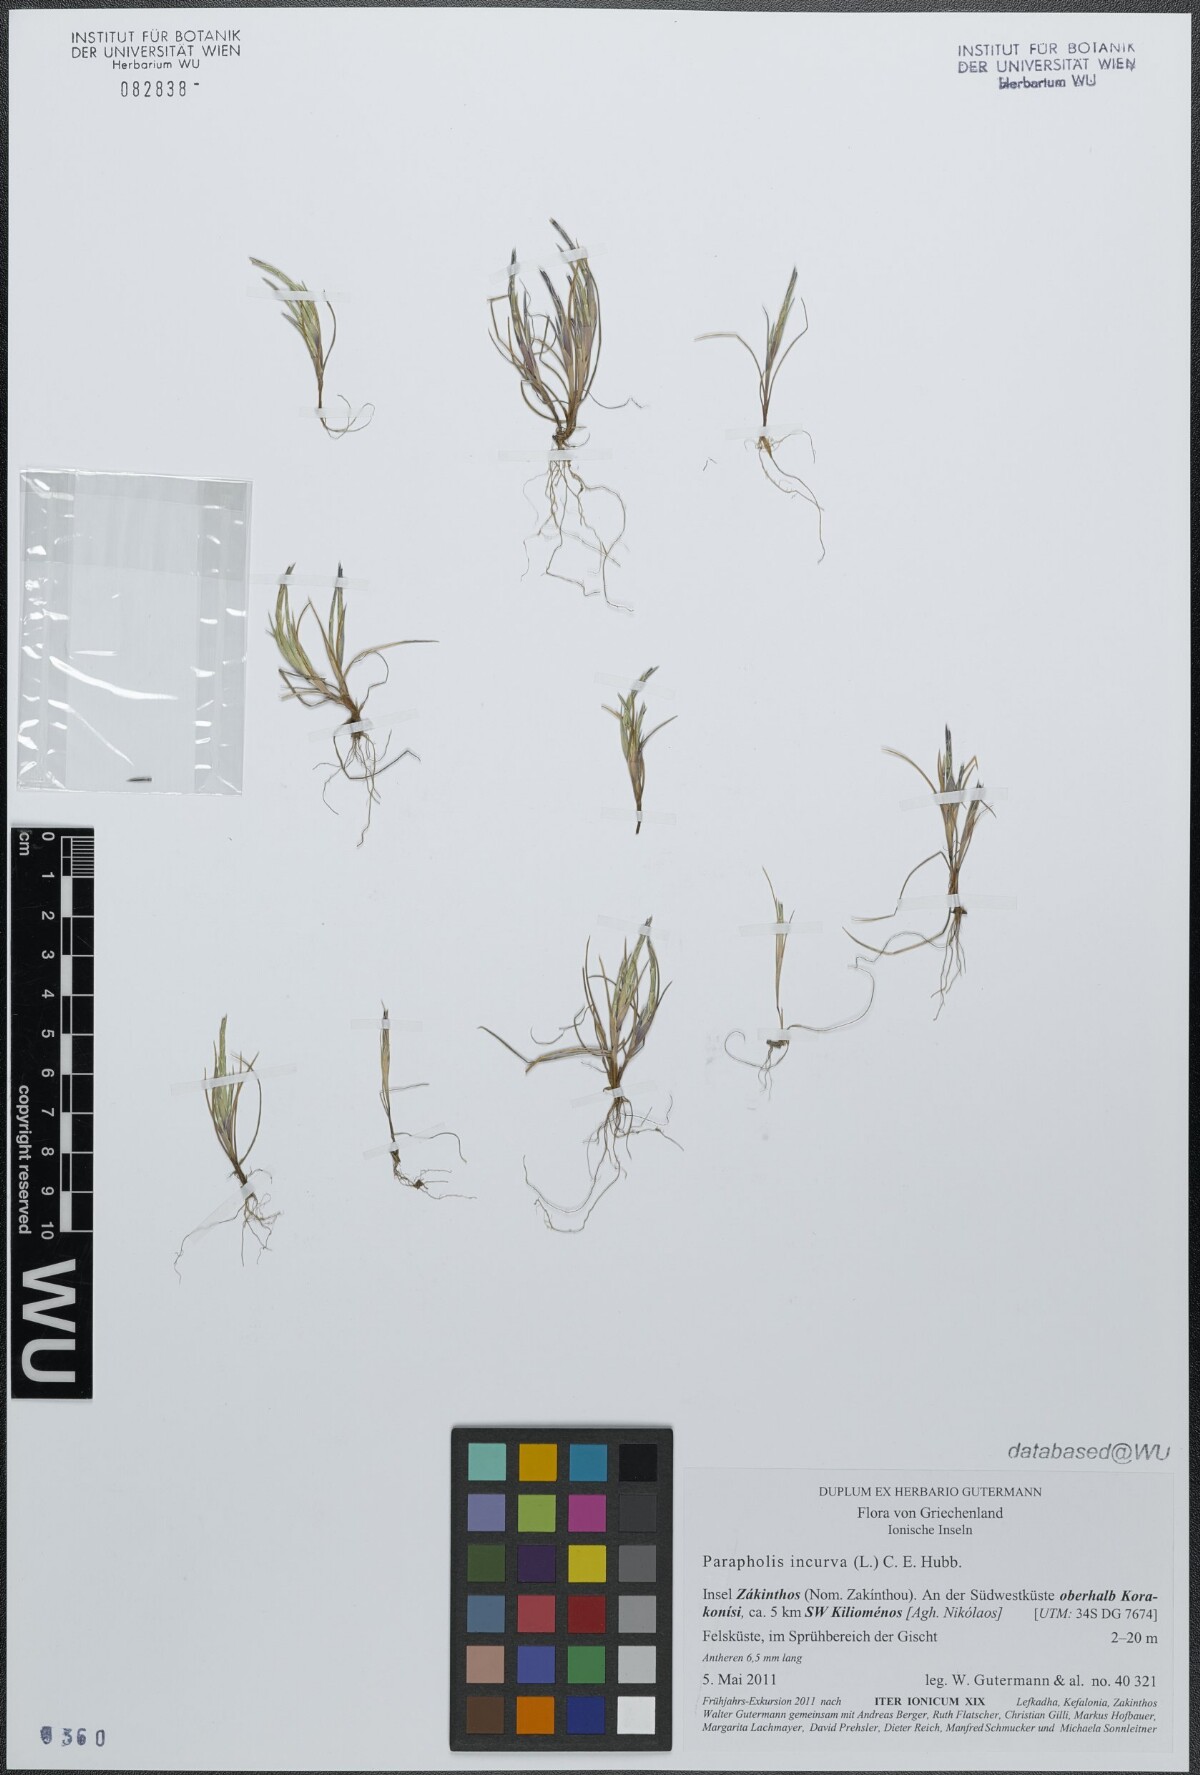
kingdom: Plantae
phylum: Tracheophyta
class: Liliopsida
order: Poales
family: Poaceae
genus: Parapholis
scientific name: Parapholis incurva
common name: Curved sicklegrass
